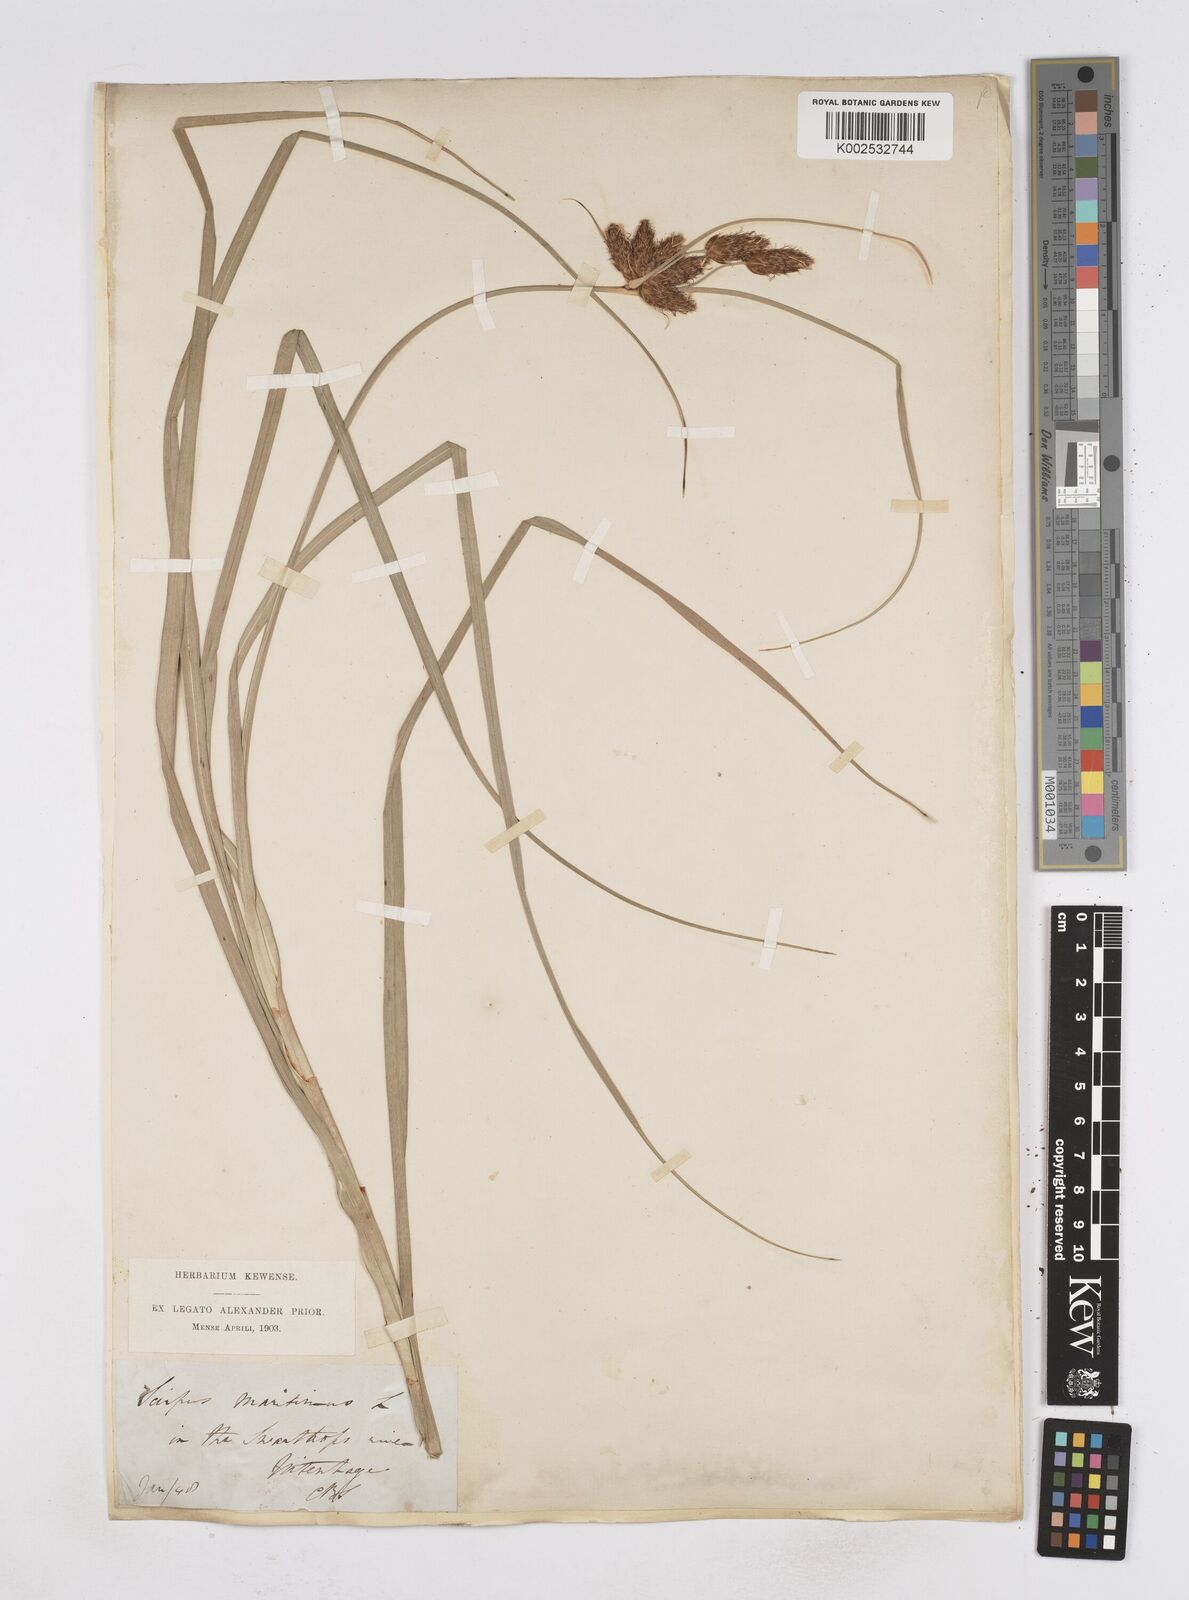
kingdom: Plantae
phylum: Tracheophyta
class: Liliopsida
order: Poales
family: Cyperaceae
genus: Bolboschoenus
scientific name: Bolboschoenus maritimus
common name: Sea club-rush
